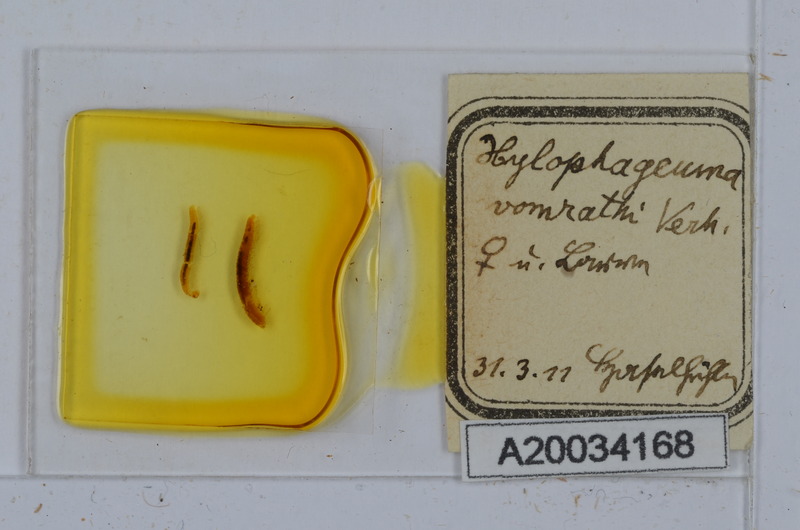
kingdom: Animalia
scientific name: Animalia
